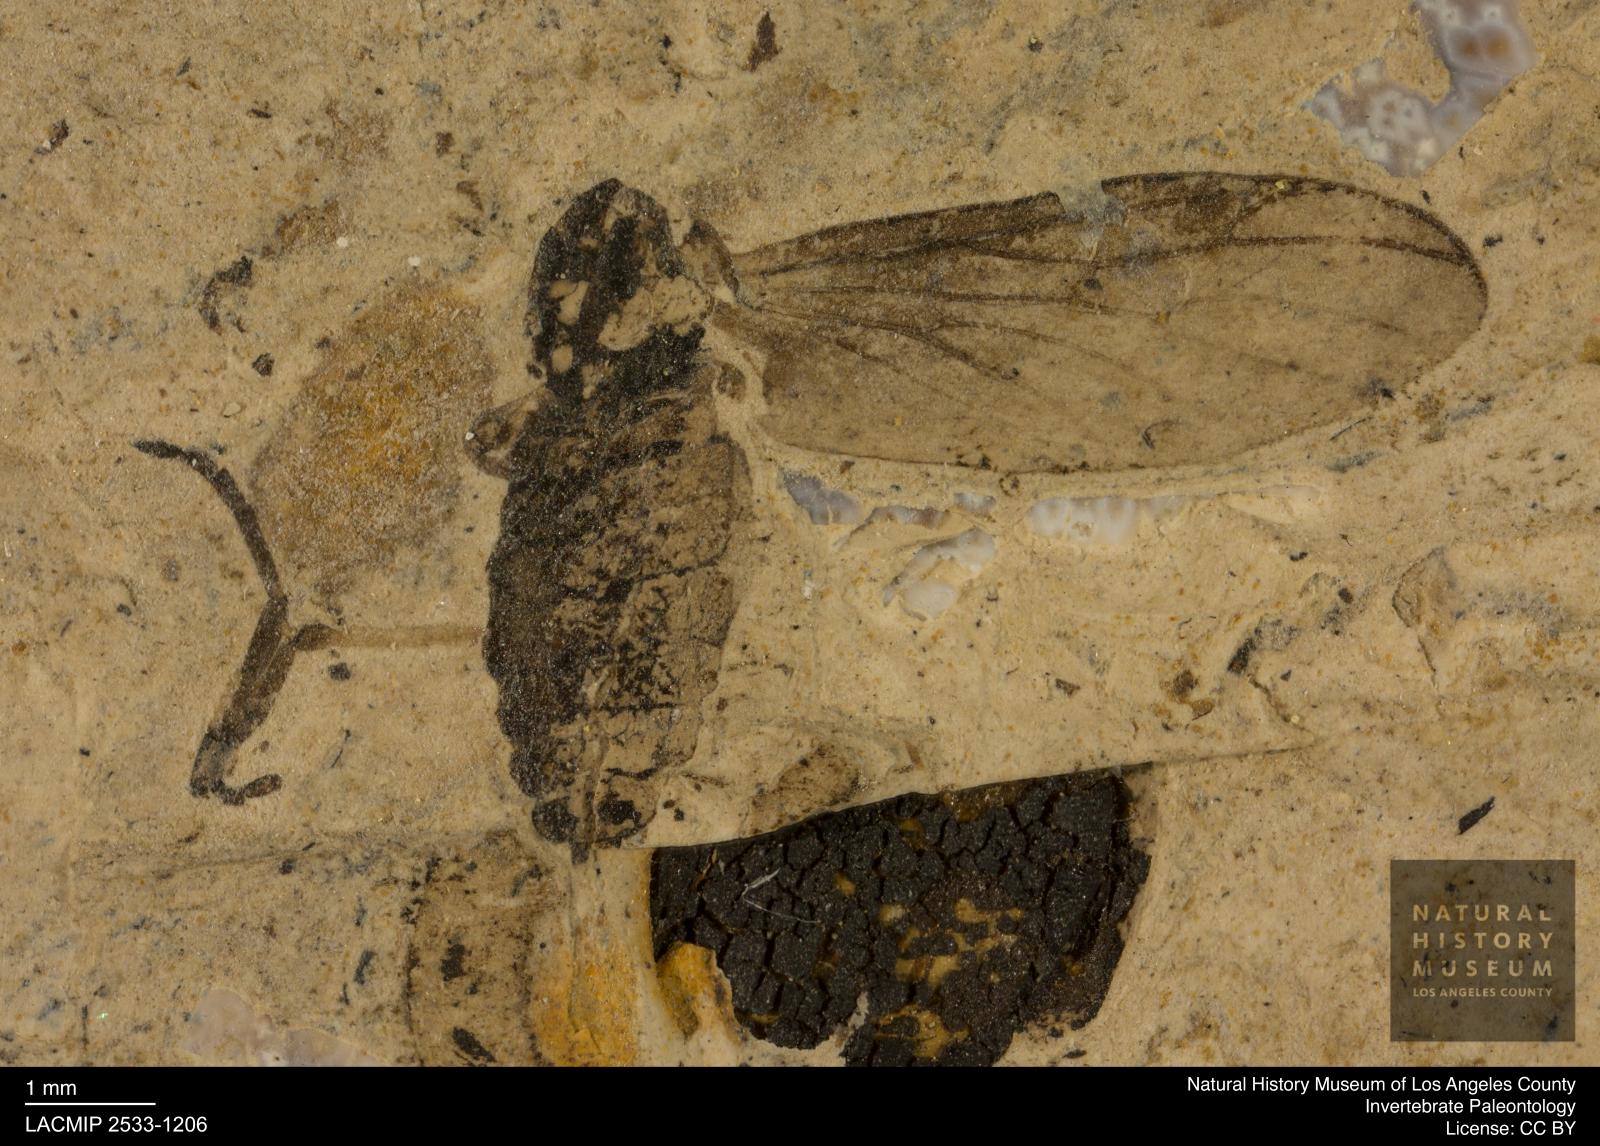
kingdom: Animalia
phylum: Arthropoda
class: Insecta
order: Diptera
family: Bibionidae
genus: Plecia
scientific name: Plecia stygia
